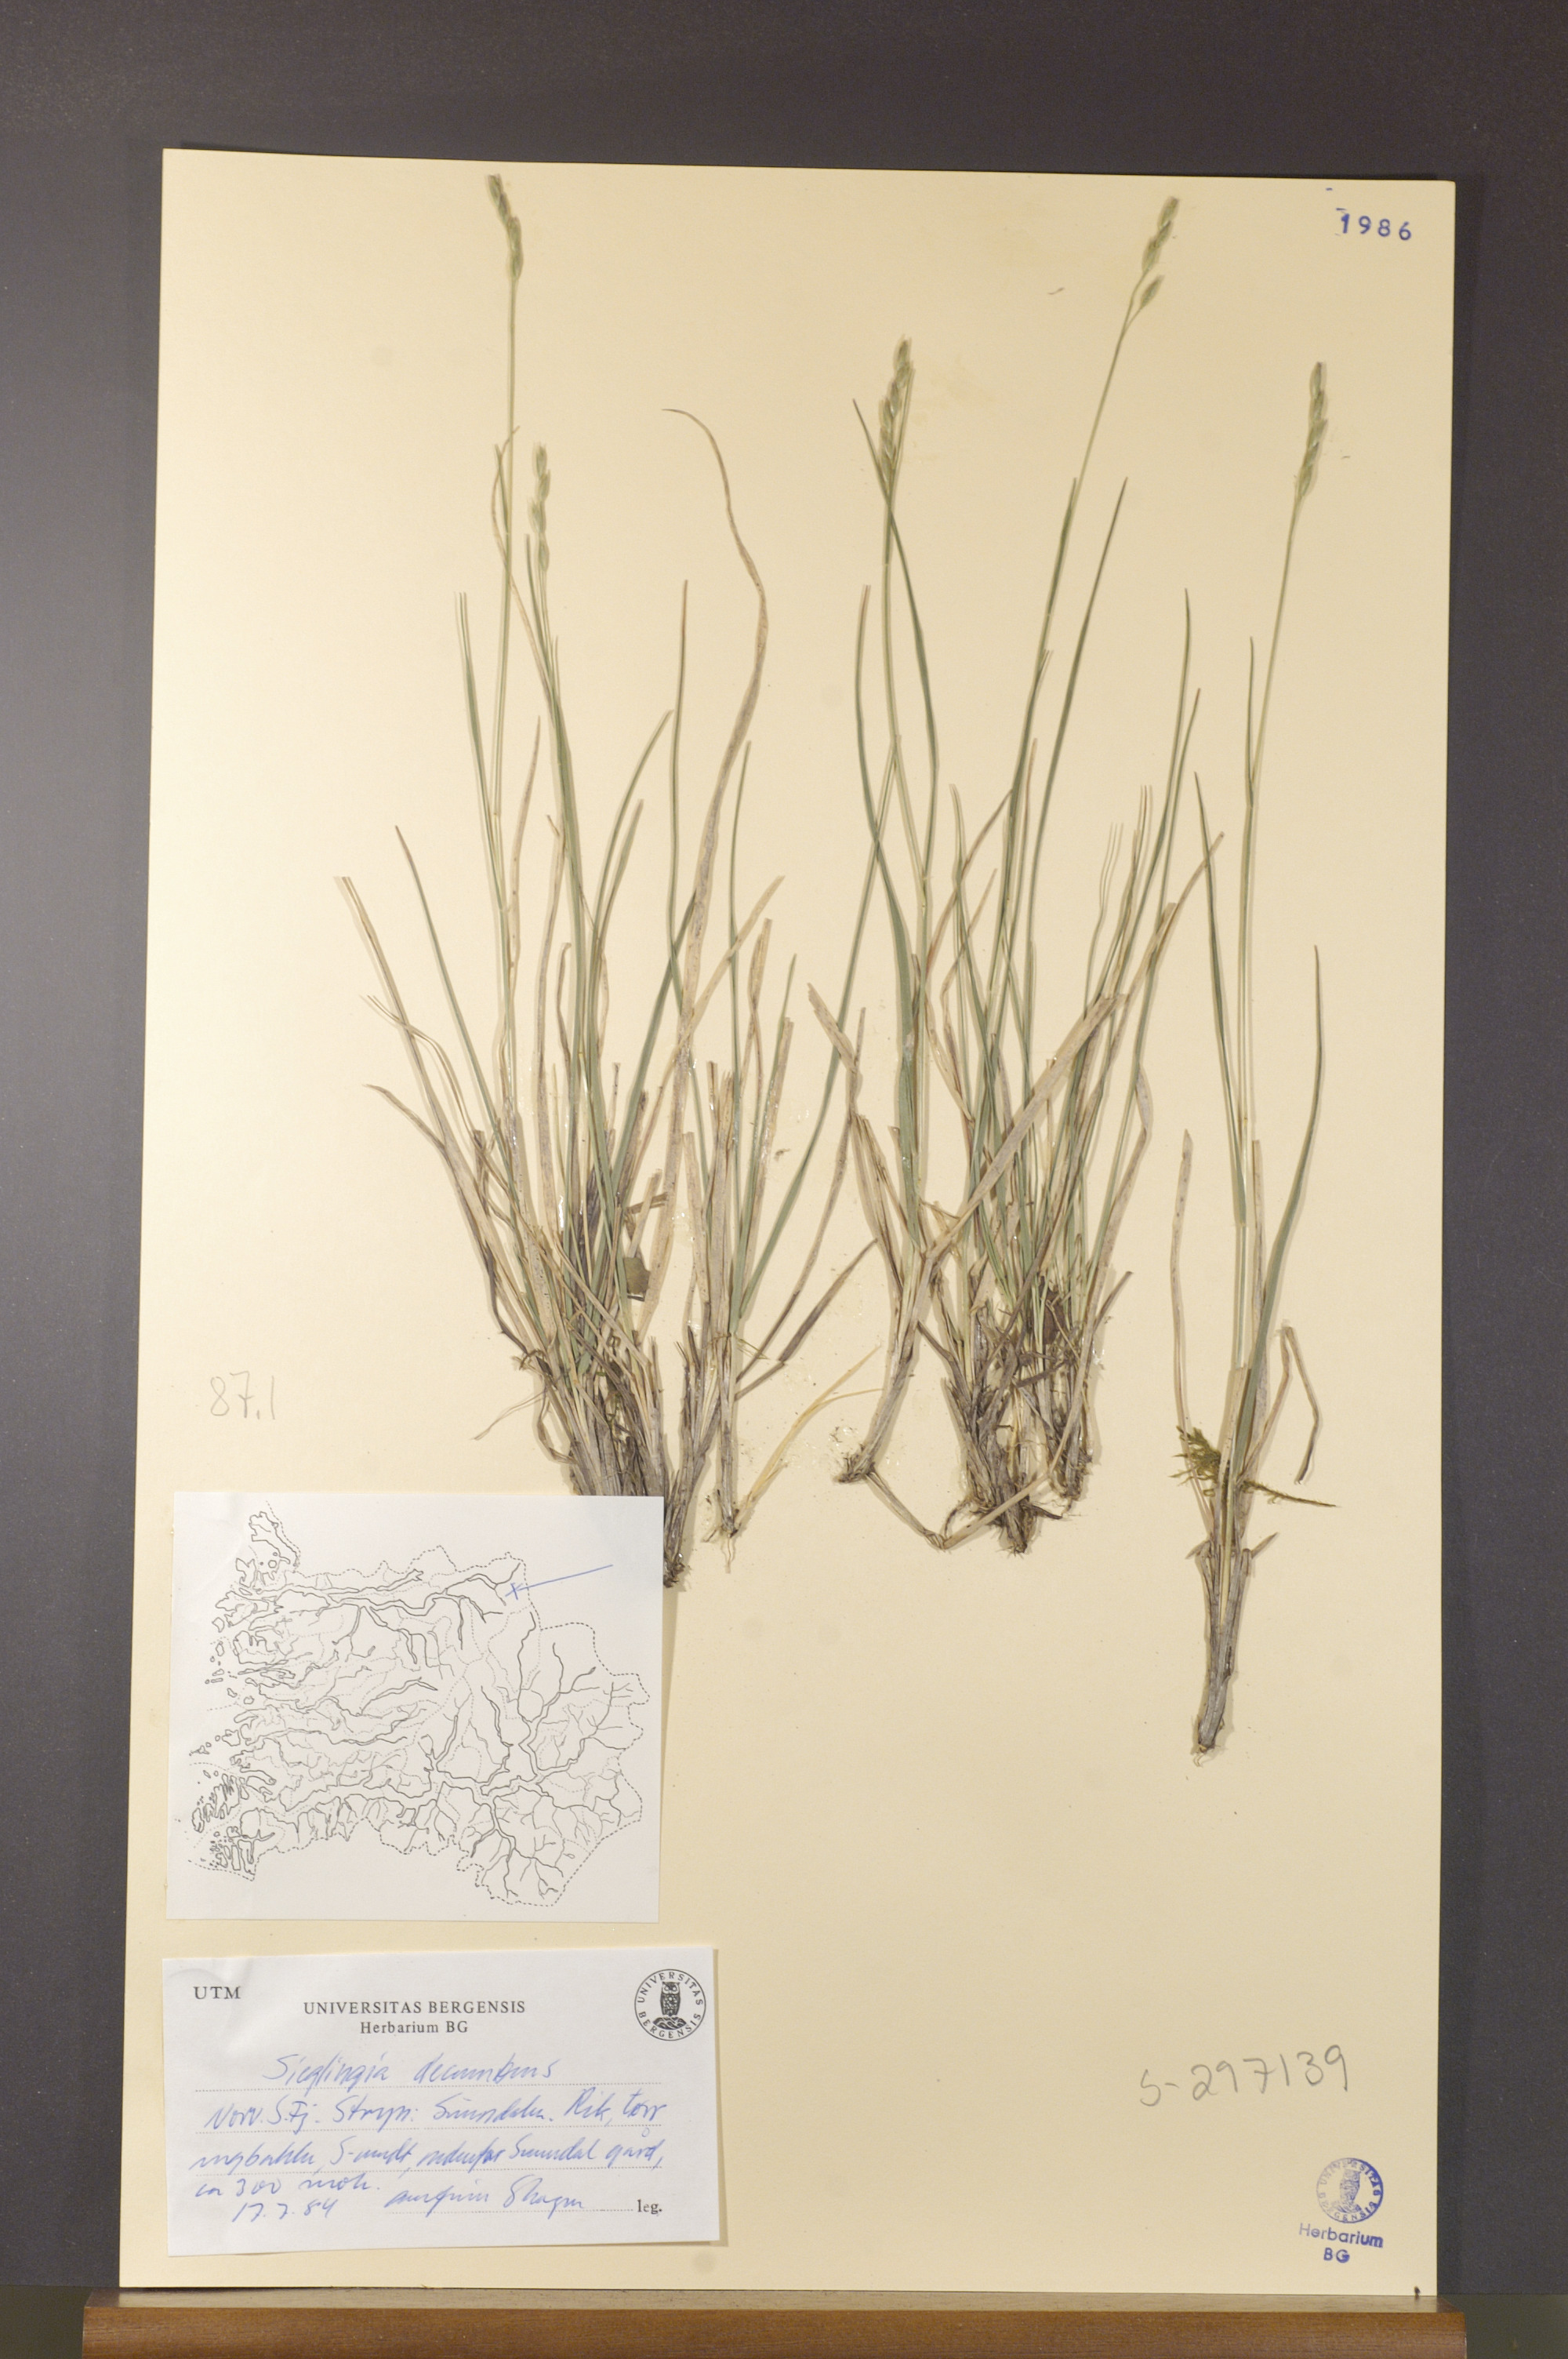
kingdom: Plantae
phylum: Tracheophyta
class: Liliopsida
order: Poales
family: Poaceae
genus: Danthonia
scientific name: Danthonia decumbens
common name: Common heathgrass
